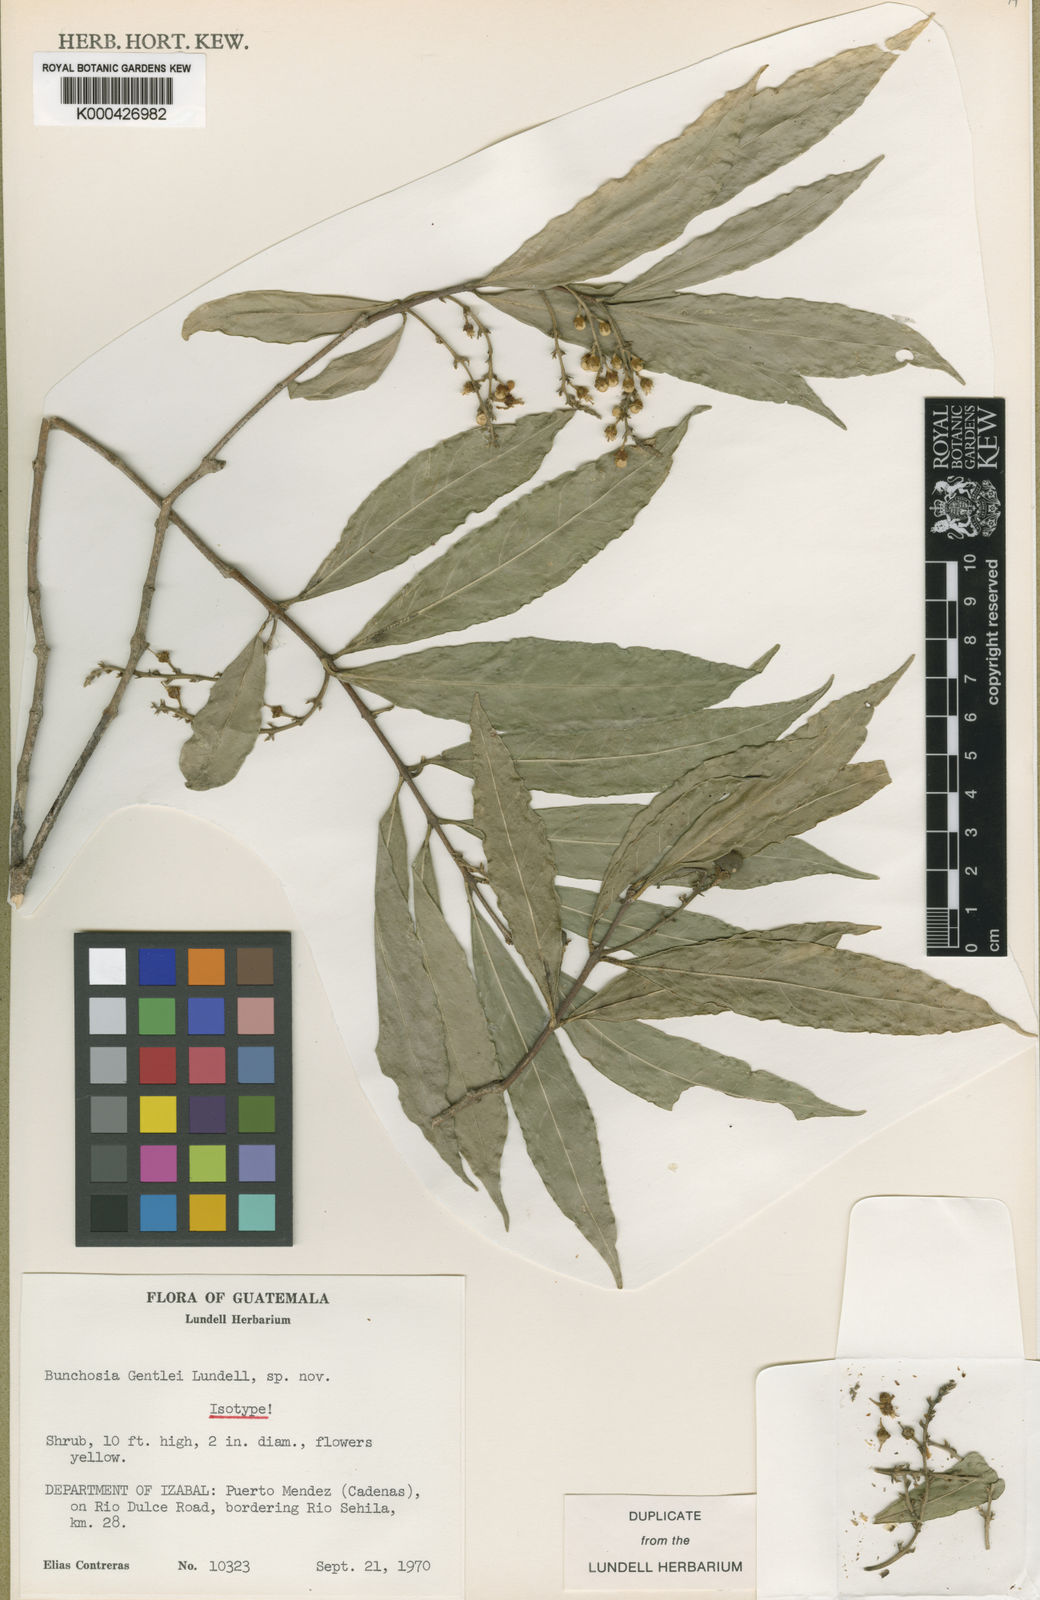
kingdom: Plantae
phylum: Tracheophyta
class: Magnoliopsida
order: Malpighiales
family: Malpighiaceae
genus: Bunchosia
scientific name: Bunchosia lindeniana
